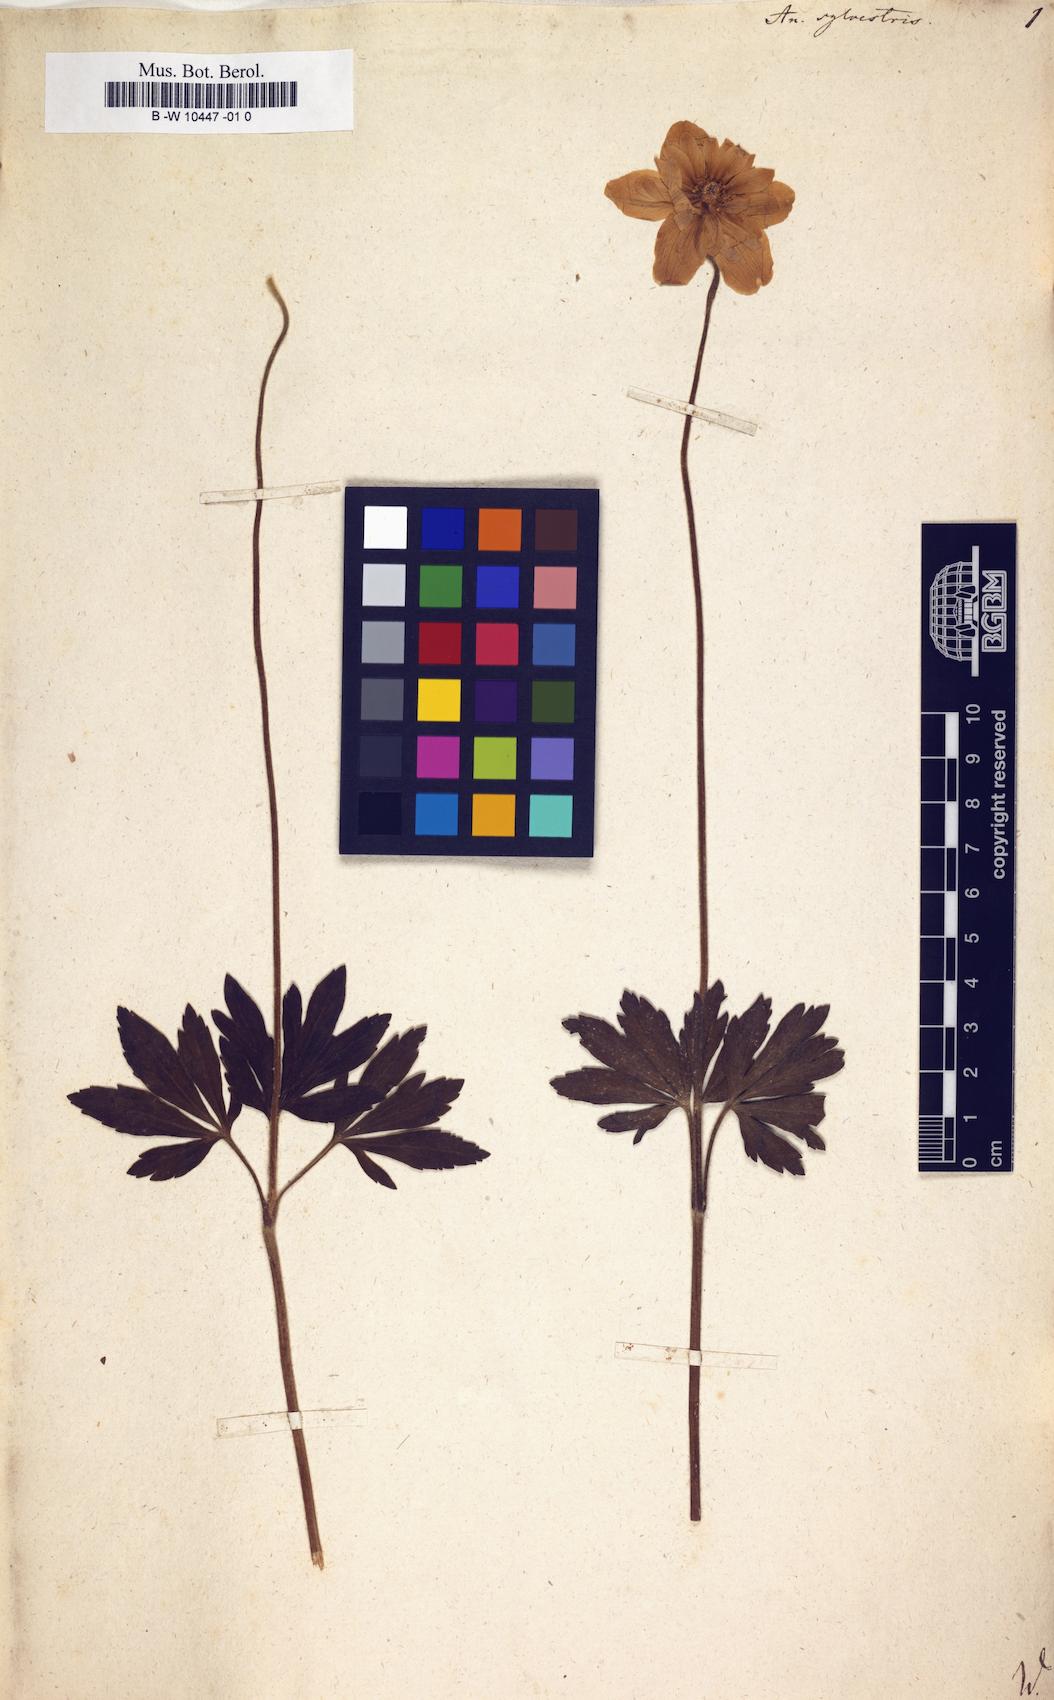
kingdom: Plantae
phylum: Tracheophyta
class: Magnoliopsida
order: Ranunculales
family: Ranunculaceae
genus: Anemone
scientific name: Anemone sylvestris
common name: Snowdrop anemone
